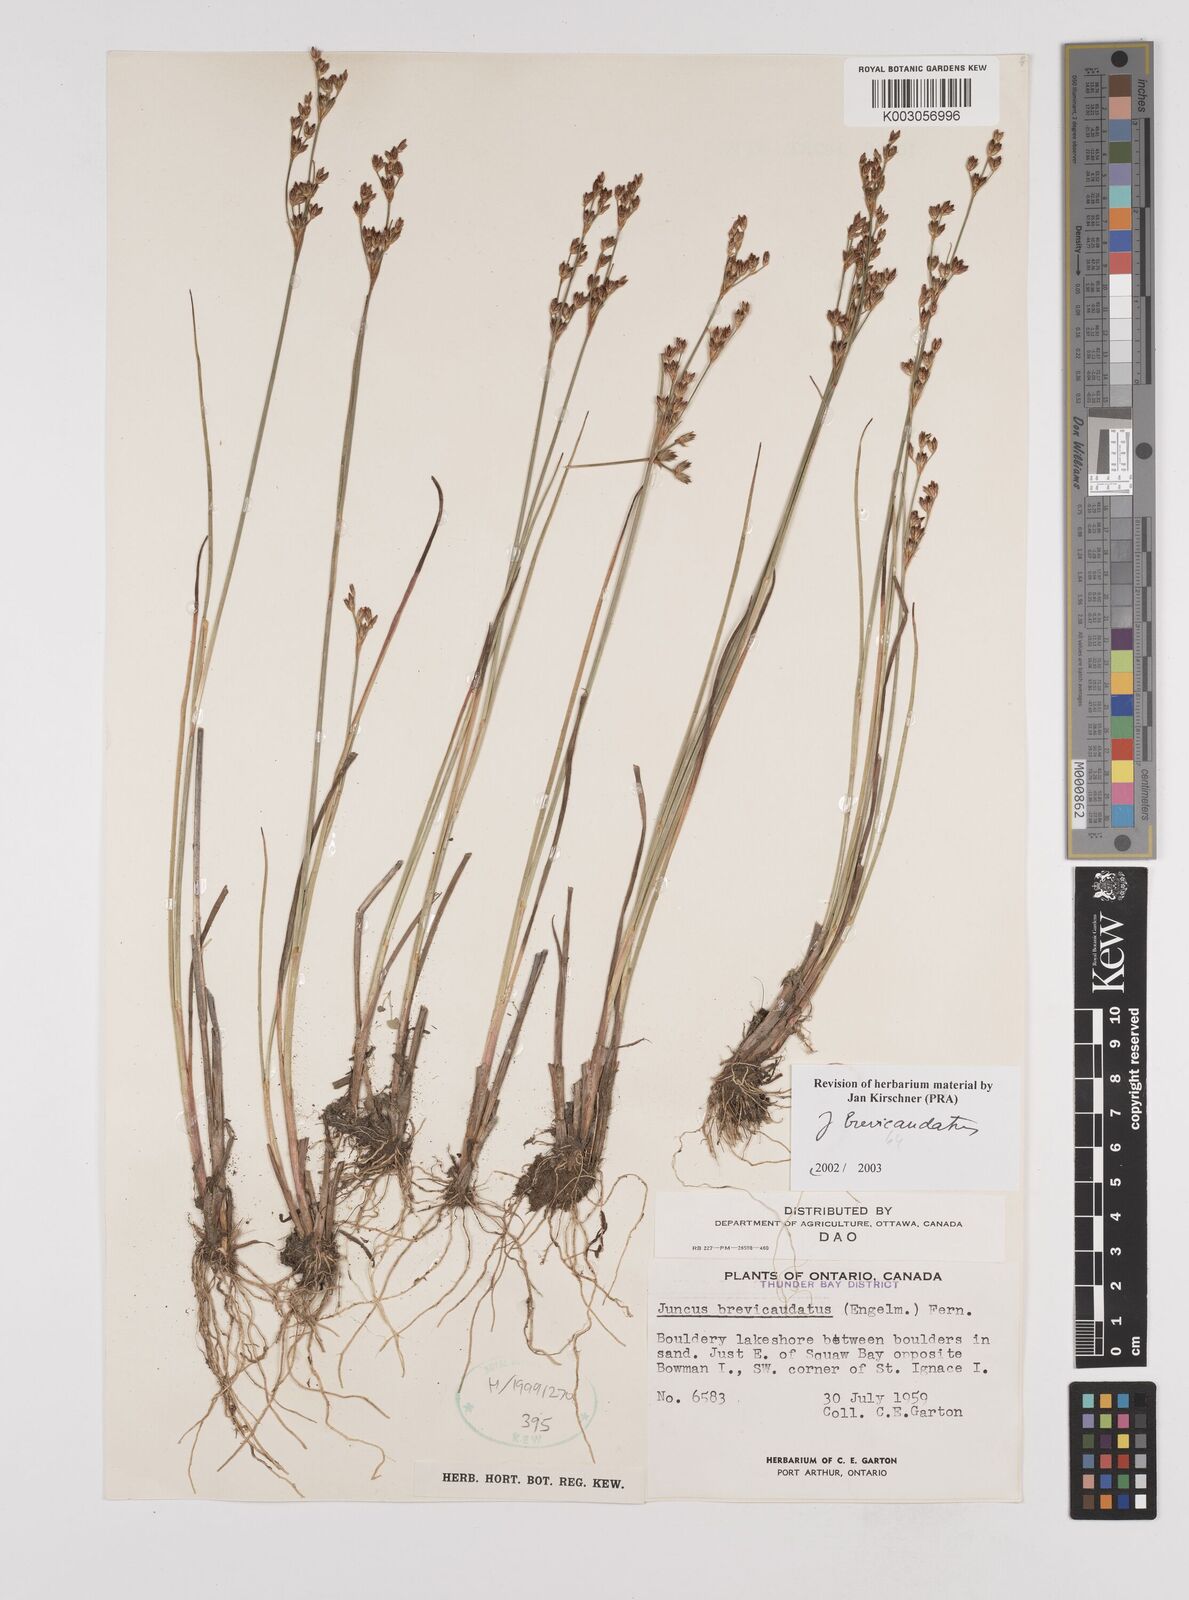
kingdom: Plantae
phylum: Tracheophyta
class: Liliopsida
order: Poales
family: Juncaceae
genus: Juncus
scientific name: Juncus brevicaudatus
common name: Narrow-panicle rush
